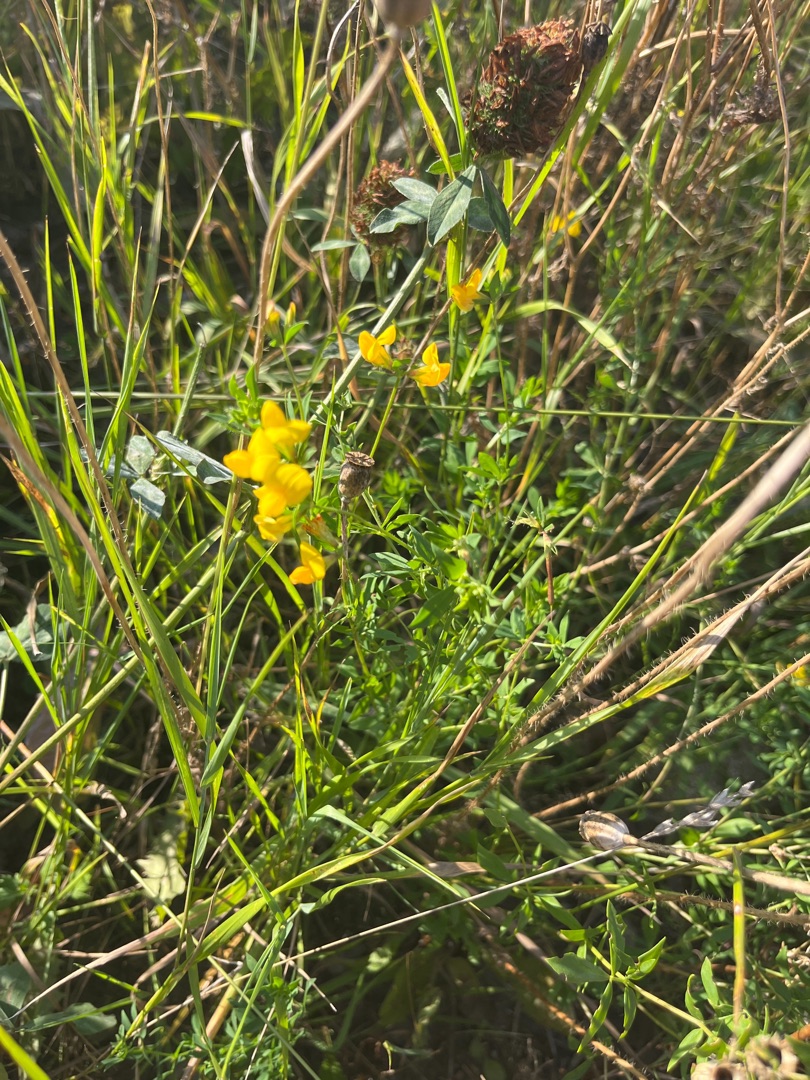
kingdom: Plantae
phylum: Tracheophyta
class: Magnoliopsida
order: Fabales
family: Fabaceae
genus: Lathyrus
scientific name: Lathyrus pratensis
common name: Gul fladbælg
